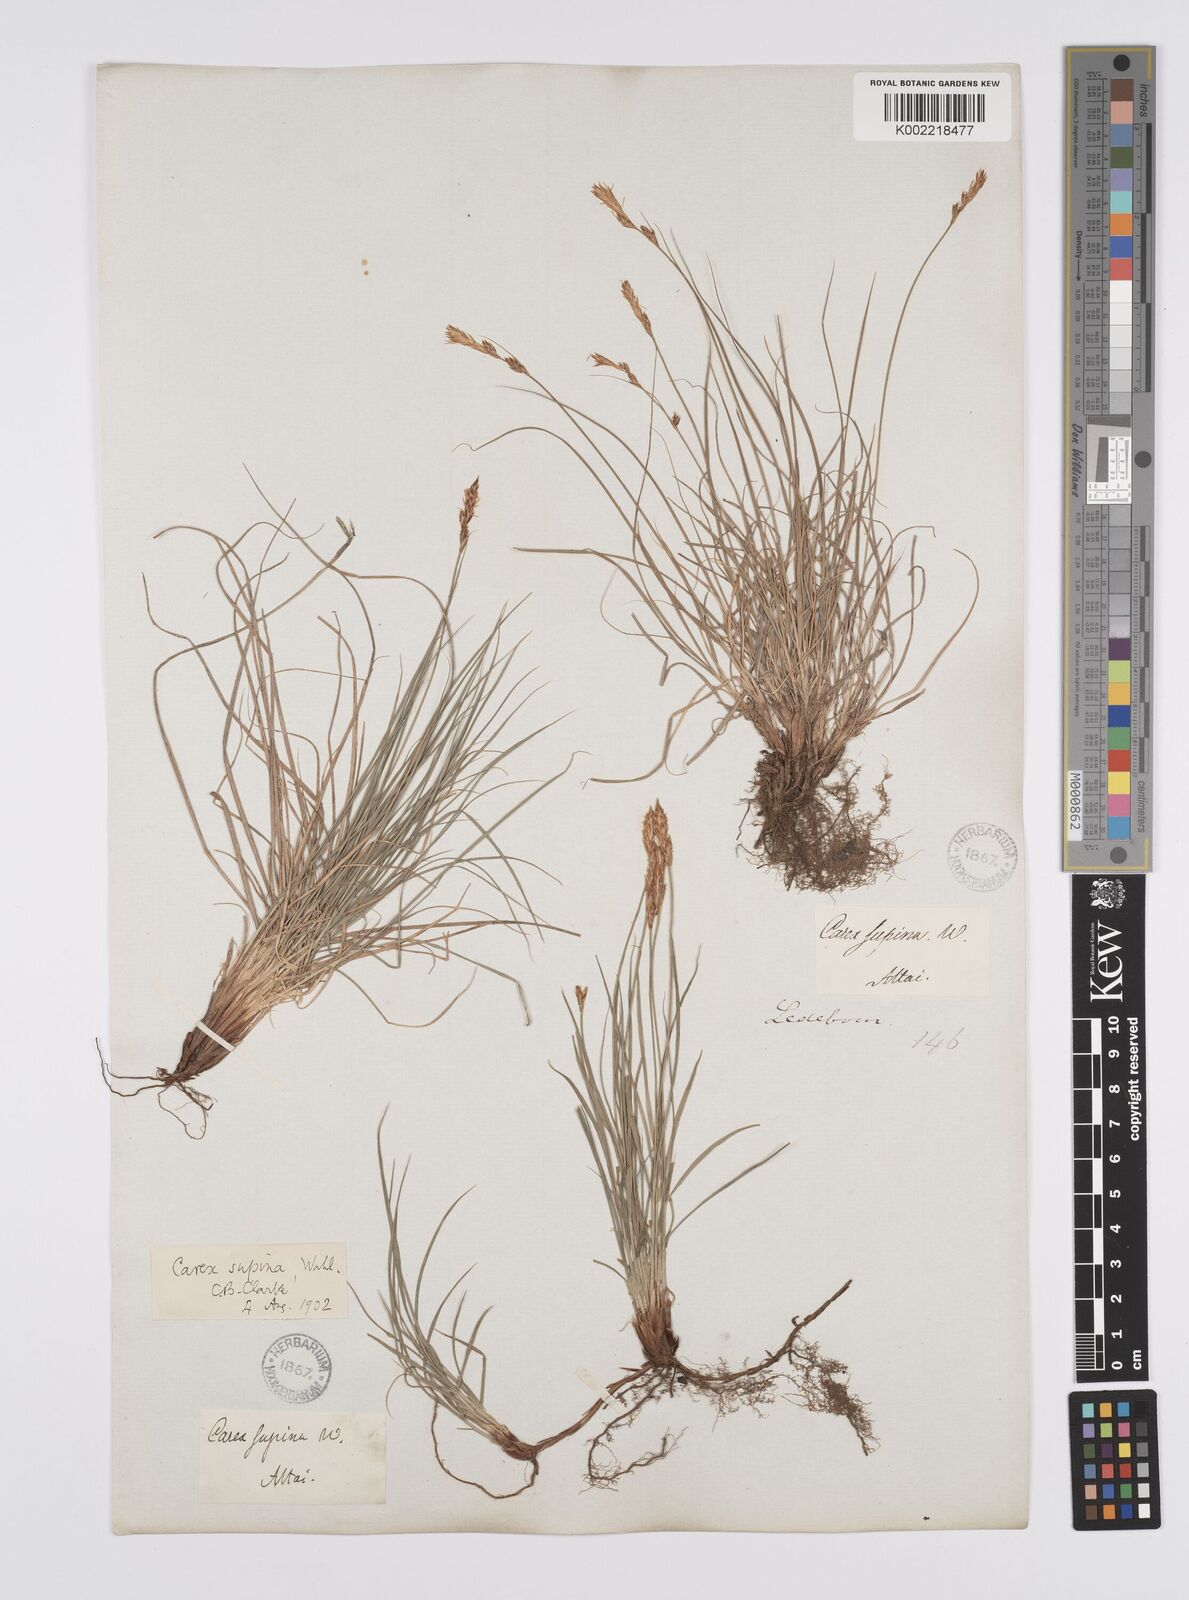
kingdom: Plantae
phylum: Tracheophyta
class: Liliopsida
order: Poales
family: Cyperaceae
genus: Carex
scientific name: Carex supina
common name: Lying-back sedge
